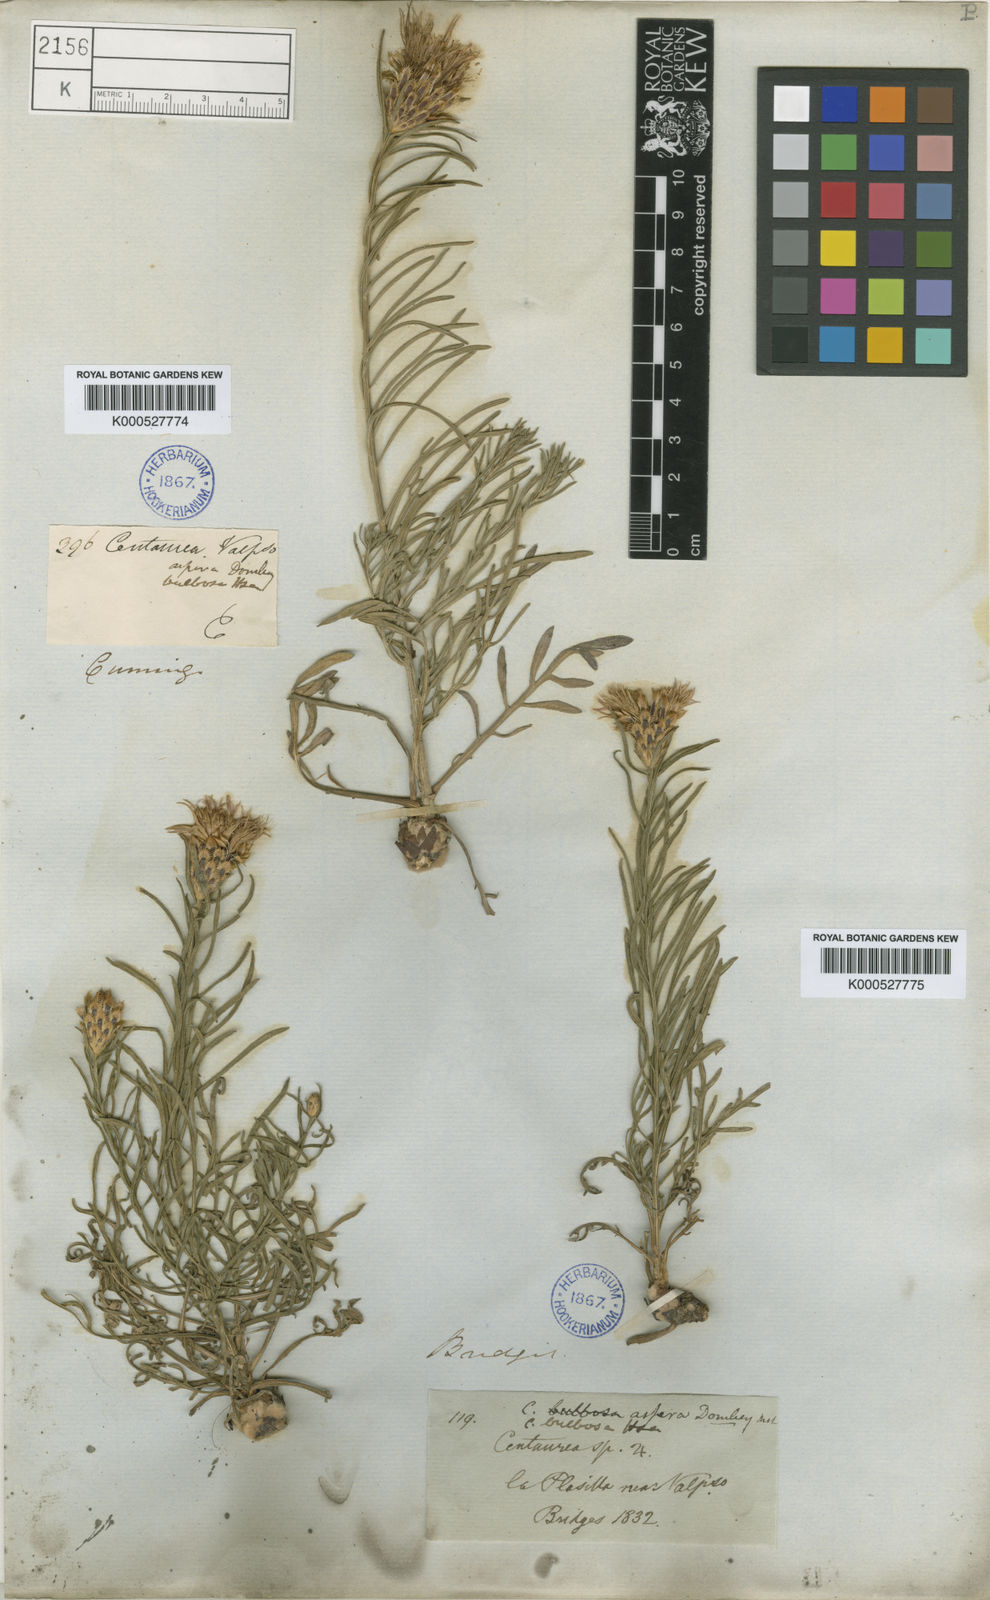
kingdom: Plantae
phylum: Tracheophyta
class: Magnoliopsida
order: Asterales
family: Asteraceae
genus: Plectocephalus
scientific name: Plectocephalus
